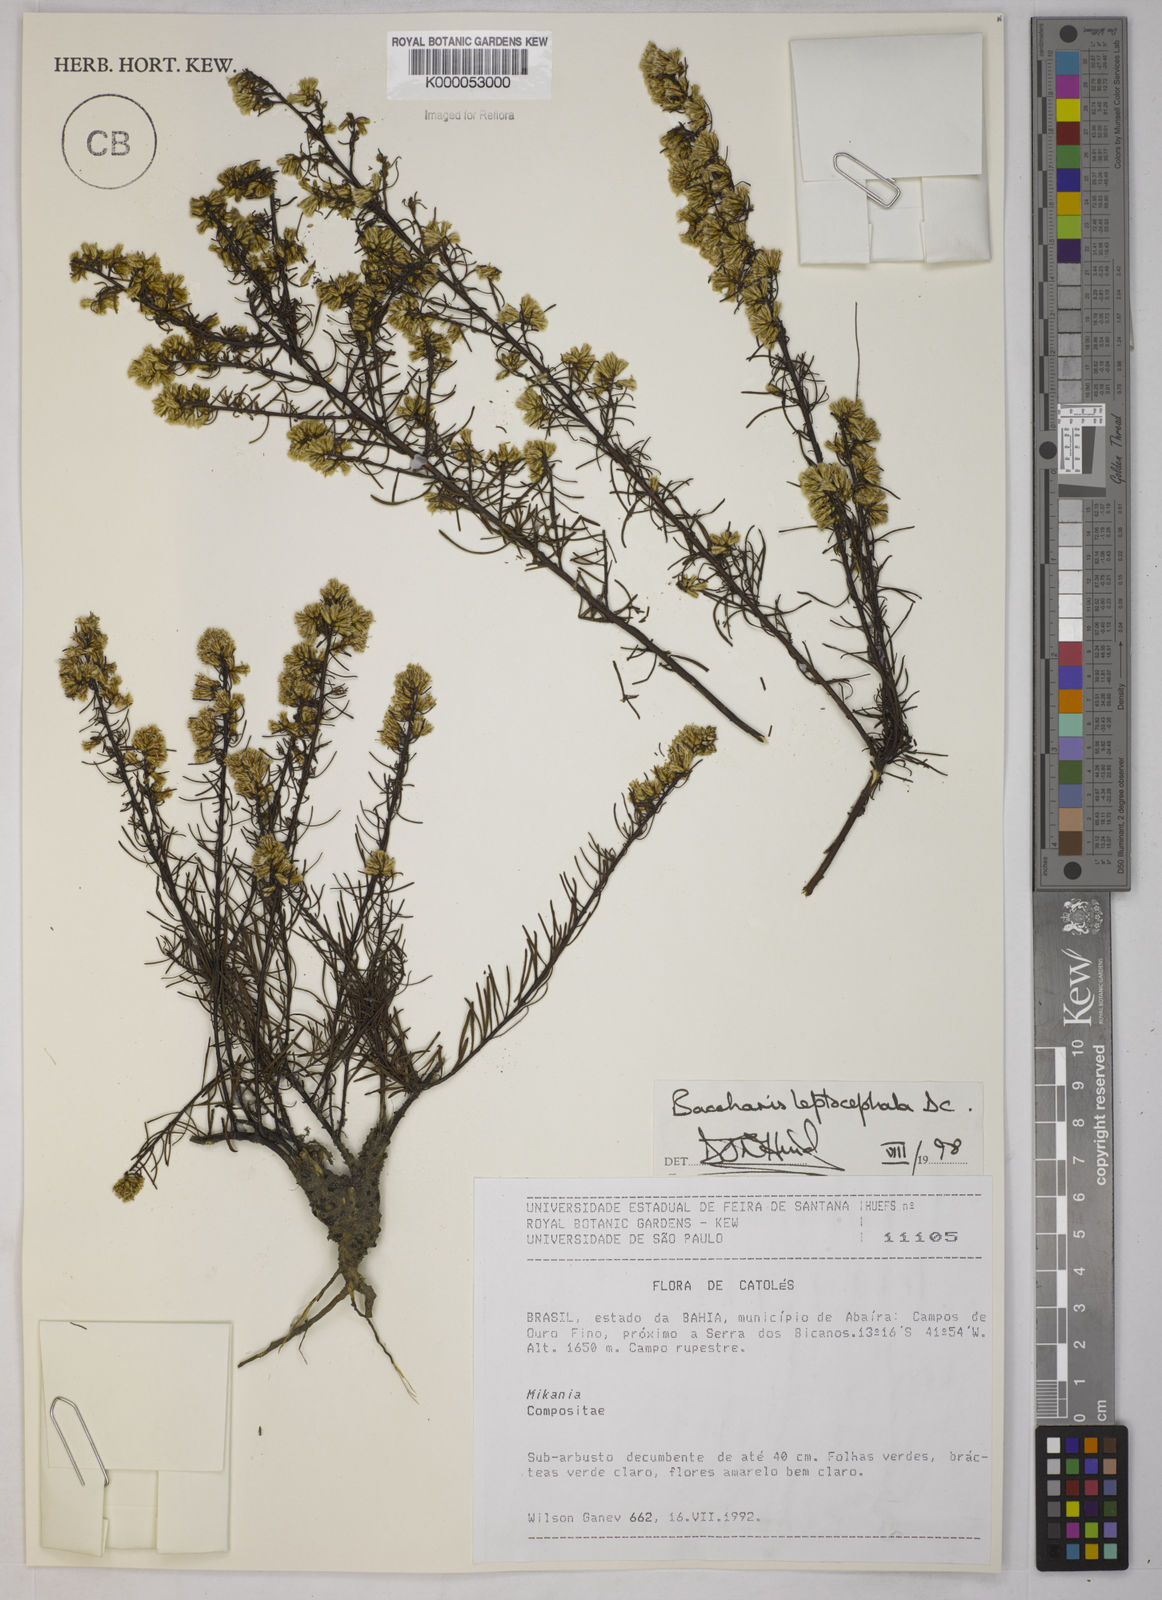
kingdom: Plantae
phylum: Tracheophyta
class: Magnoliopsida
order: Asterales
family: Asteraceae
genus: Baccharis
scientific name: Baccharis leptocephala
